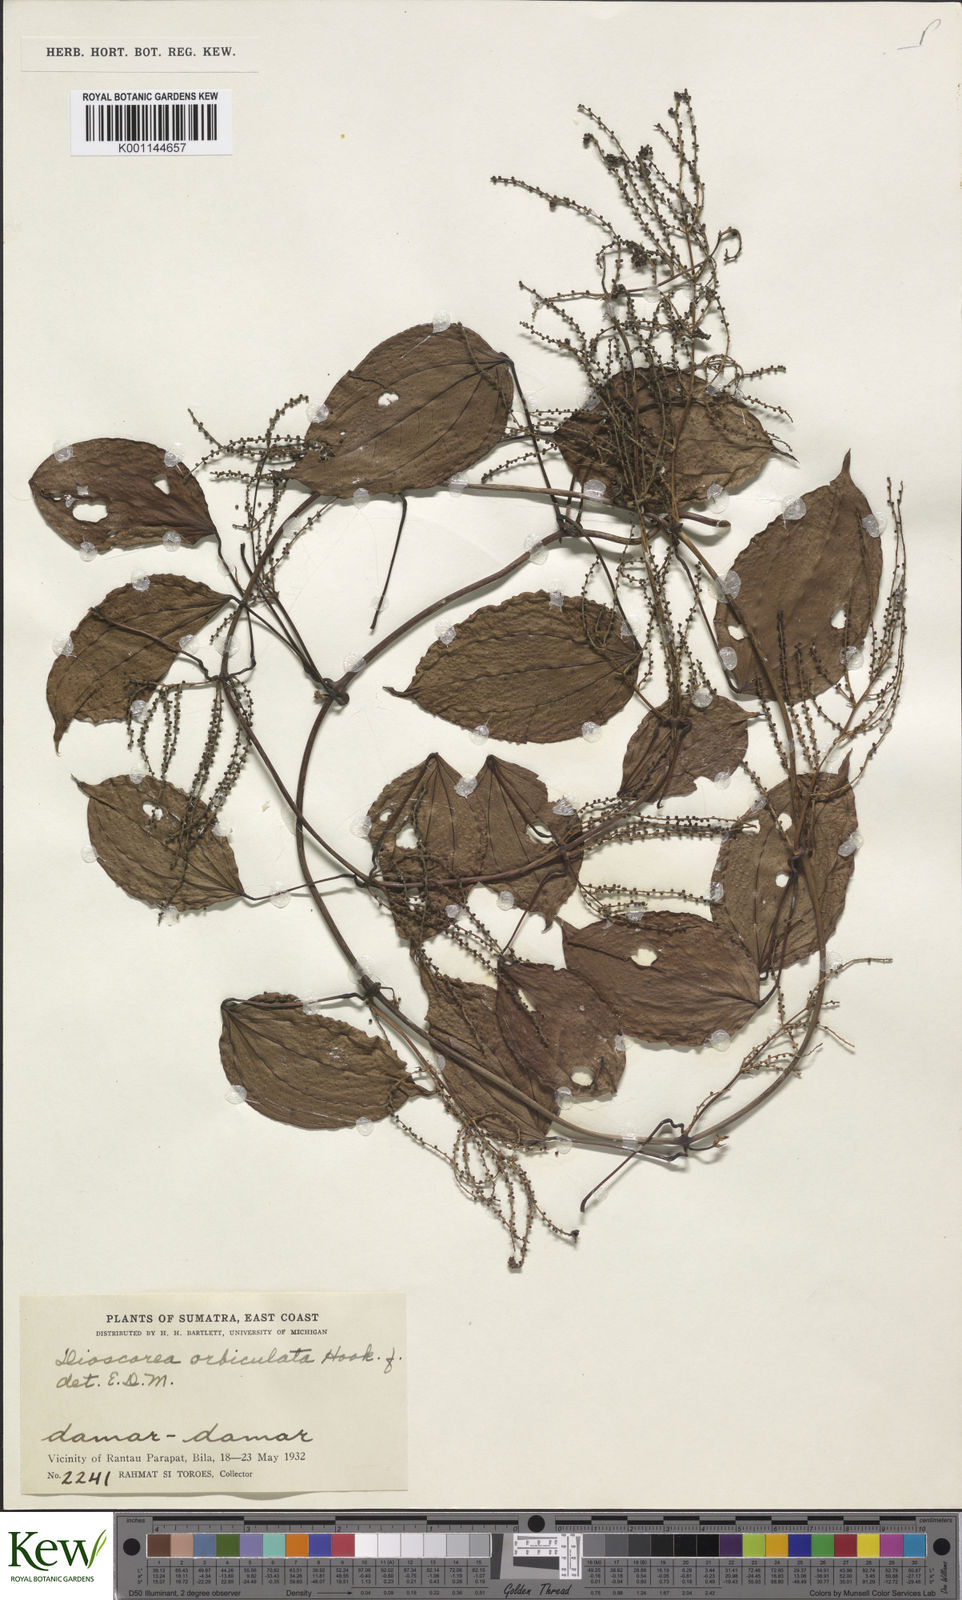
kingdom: Plantae
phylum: Tracheophyta
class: Liliopsida
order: Dioscoreales
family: Dioscoreaceae
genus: Dioscorea
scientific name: Dioscorea orbiculata
